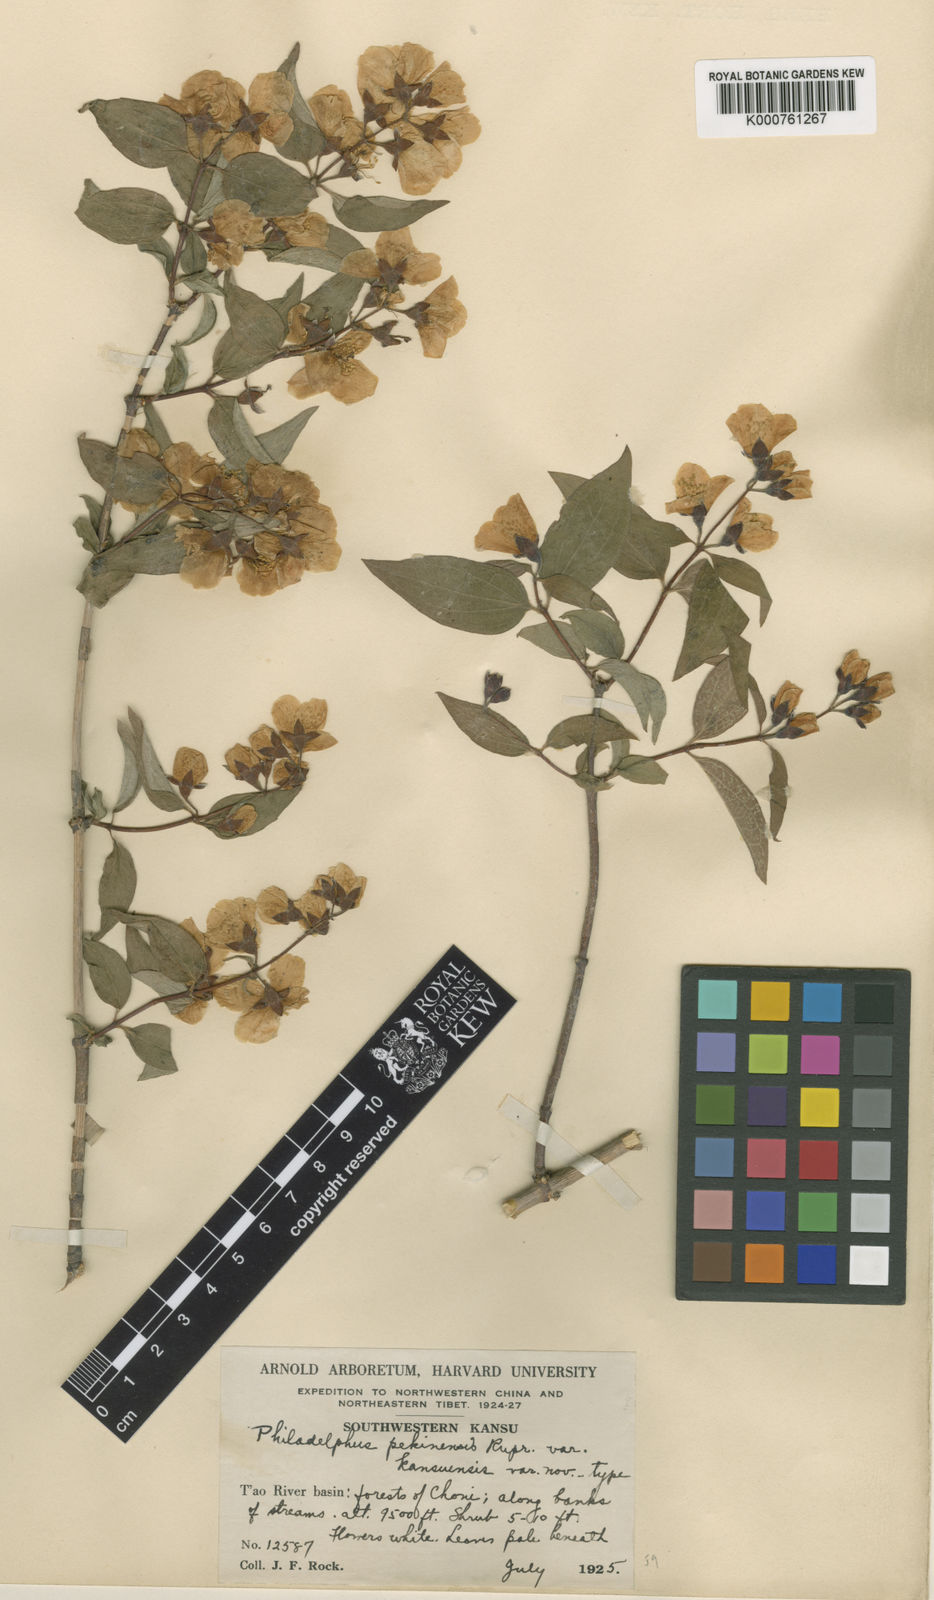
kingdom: Plantae
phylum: Tracheophyta
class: Magnoliopsida
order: Cornales
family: Hydrangeaceae
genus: Philadelphus
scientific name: Philadelphus kansuensis
